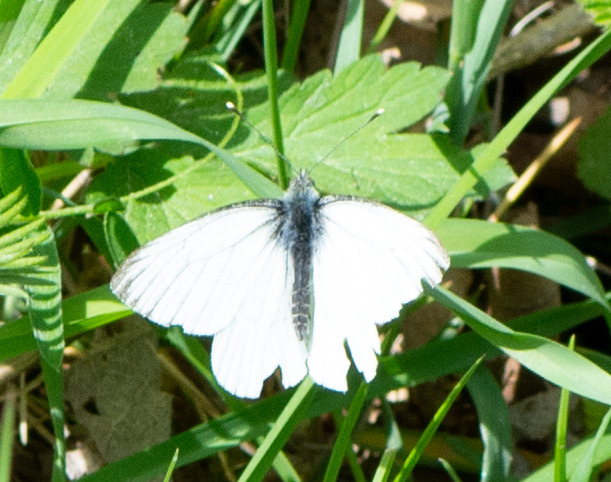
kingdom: Animalia
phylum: Arthropoda
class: Insecta
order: Lepidoptera
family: Pieridae
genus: Pieris
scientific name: Pieris napi
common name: Grønåret kålsommerfugl
